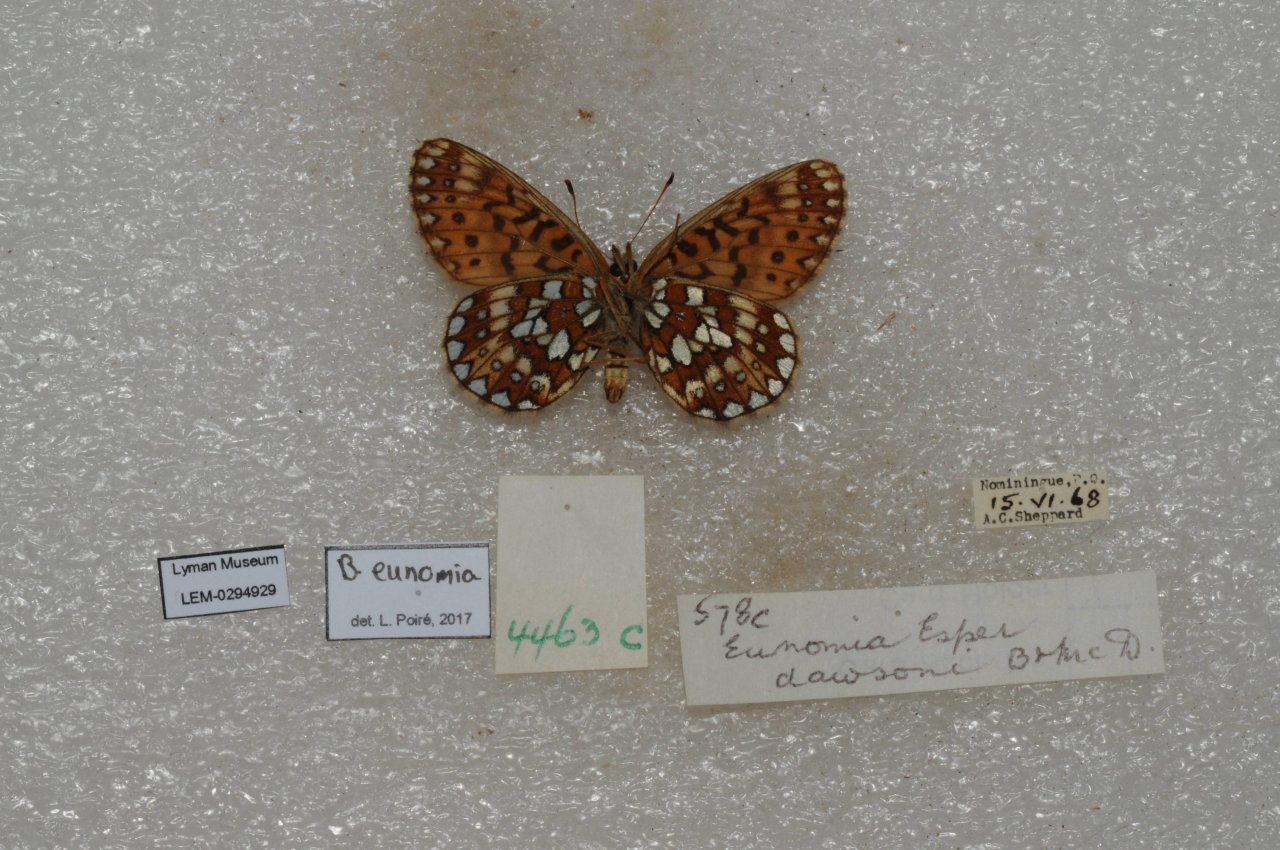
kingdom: Animalia
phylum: Arthropoda
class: Insecta
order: Lepidoptera
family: Nymphalidae
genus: Boloria
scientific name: Boloria eunomia
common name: Bog Fritillary
